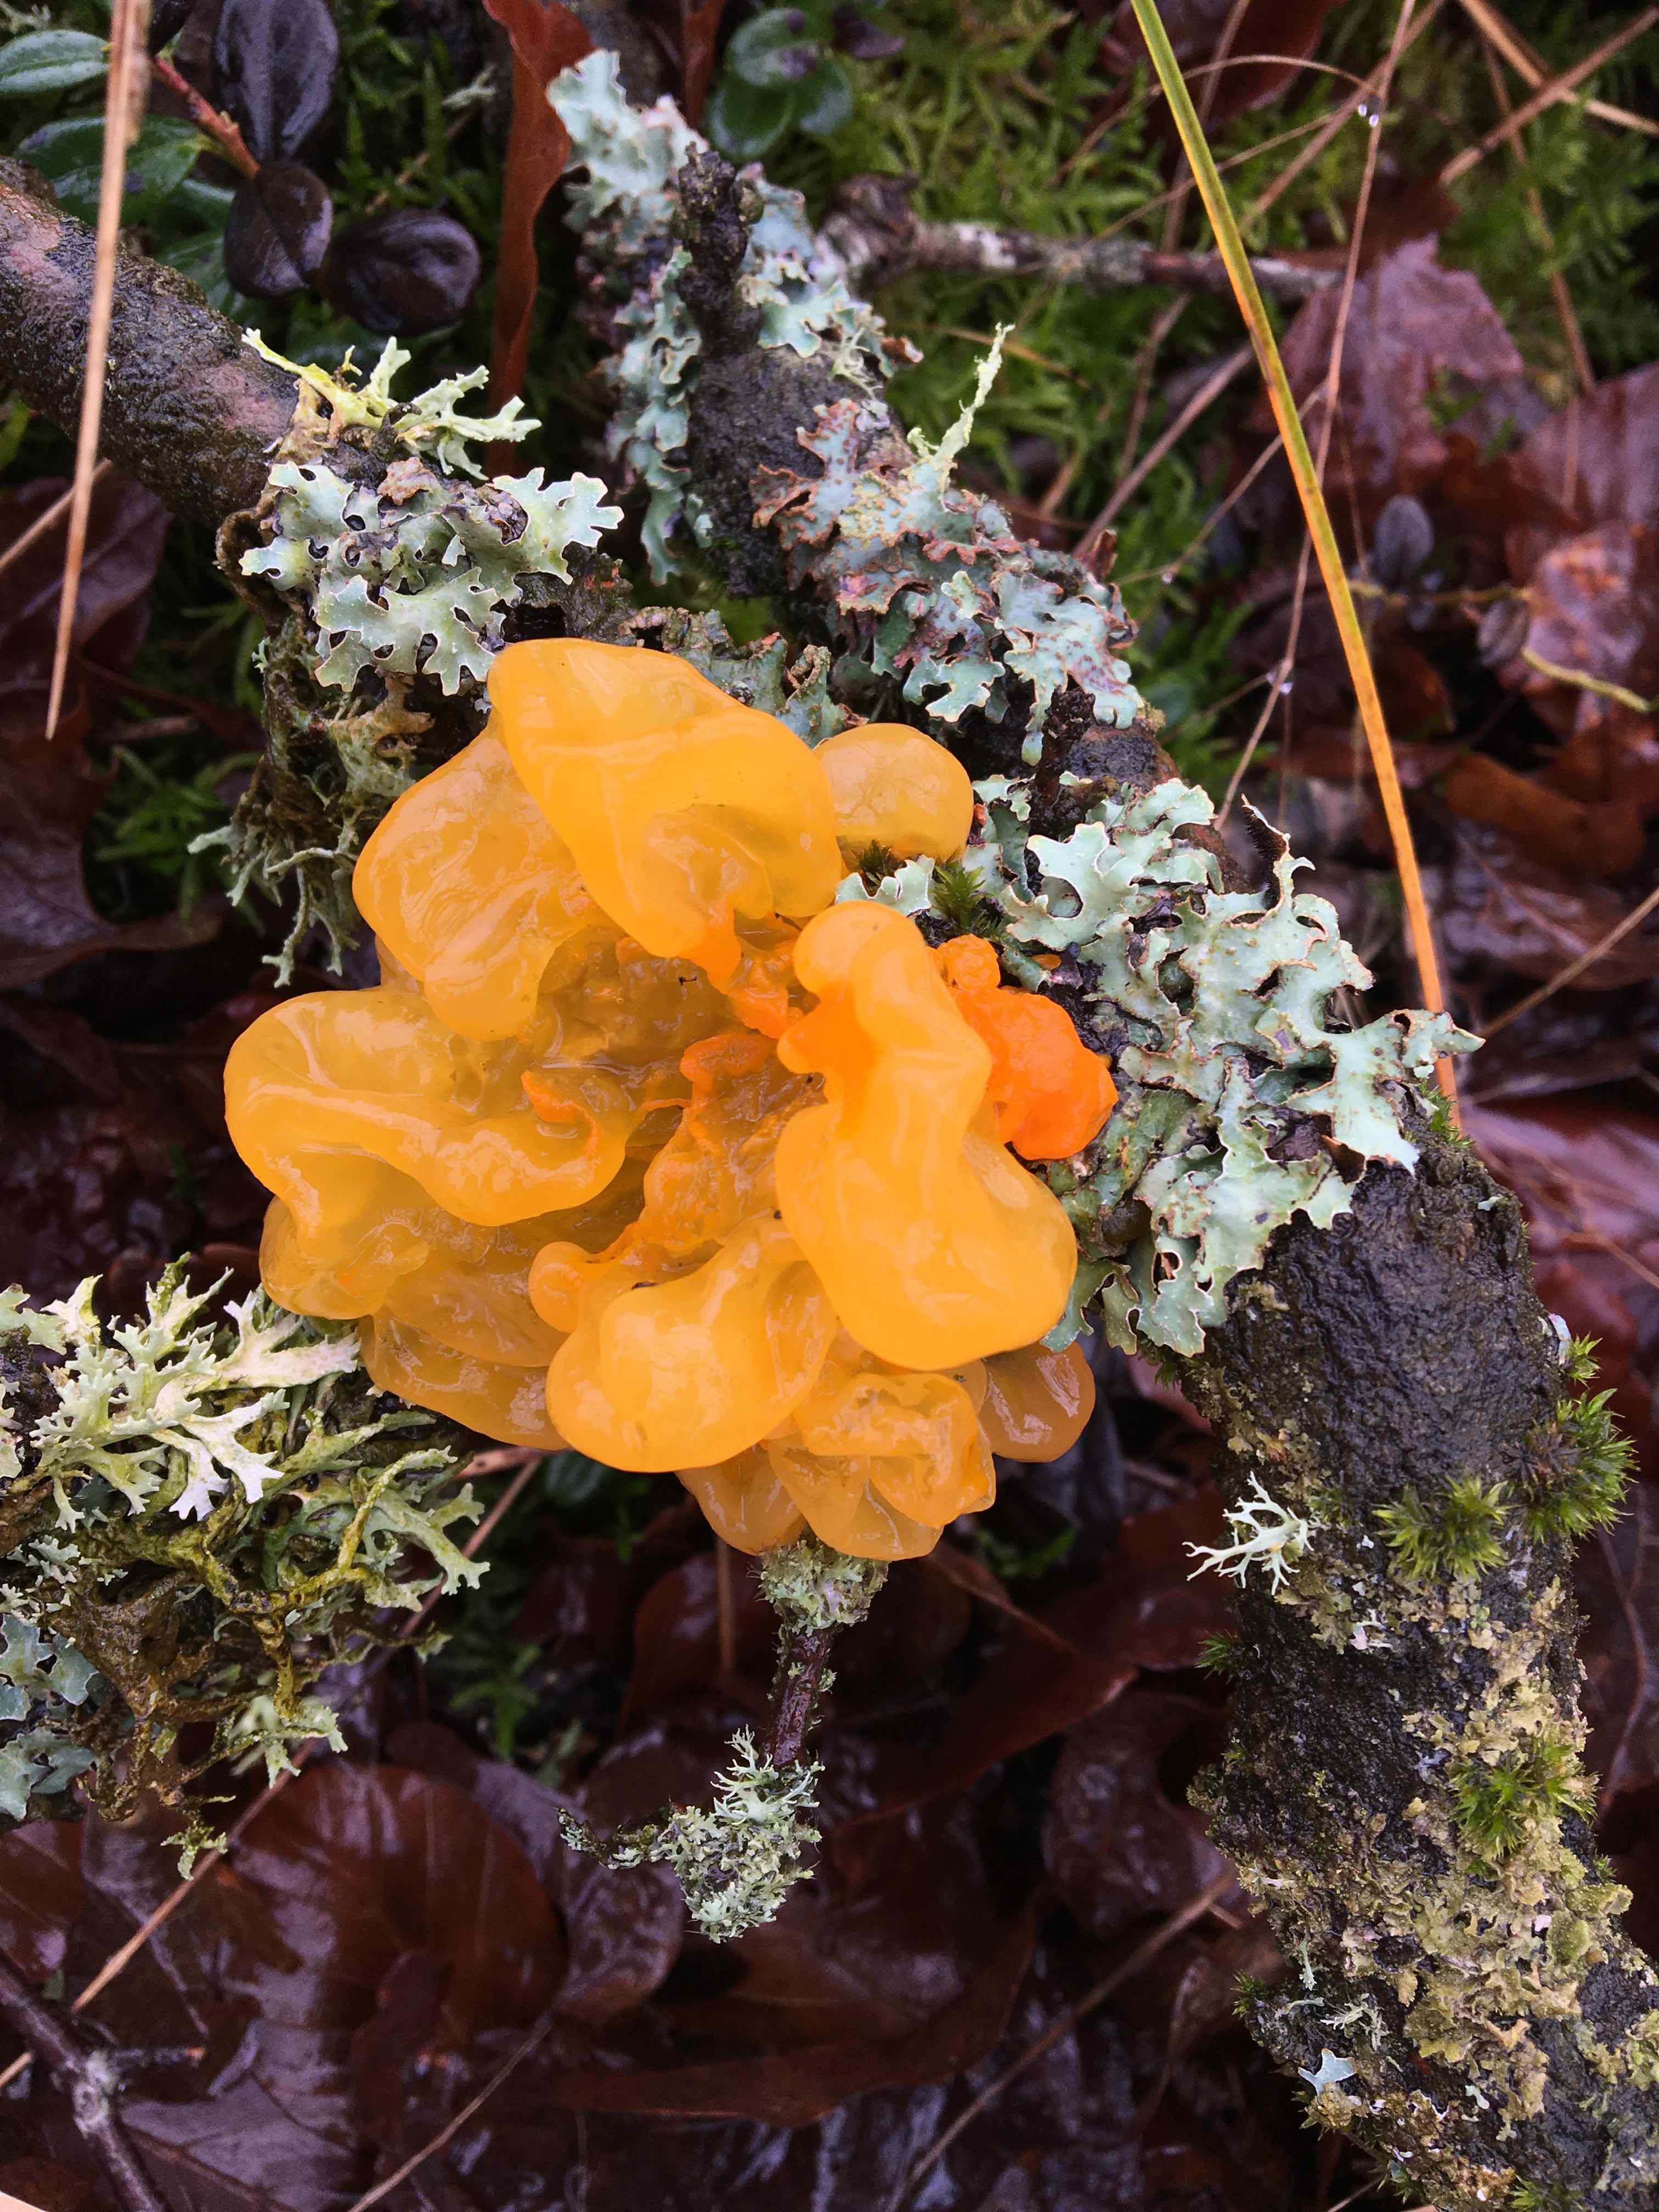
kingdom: Fungi
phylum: Basidiomycota
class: Tremellomycetes
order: Tremellales
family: Tremellaceae
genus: Tremella
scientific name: Tremella mesenterica
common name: gul bævresvamp
